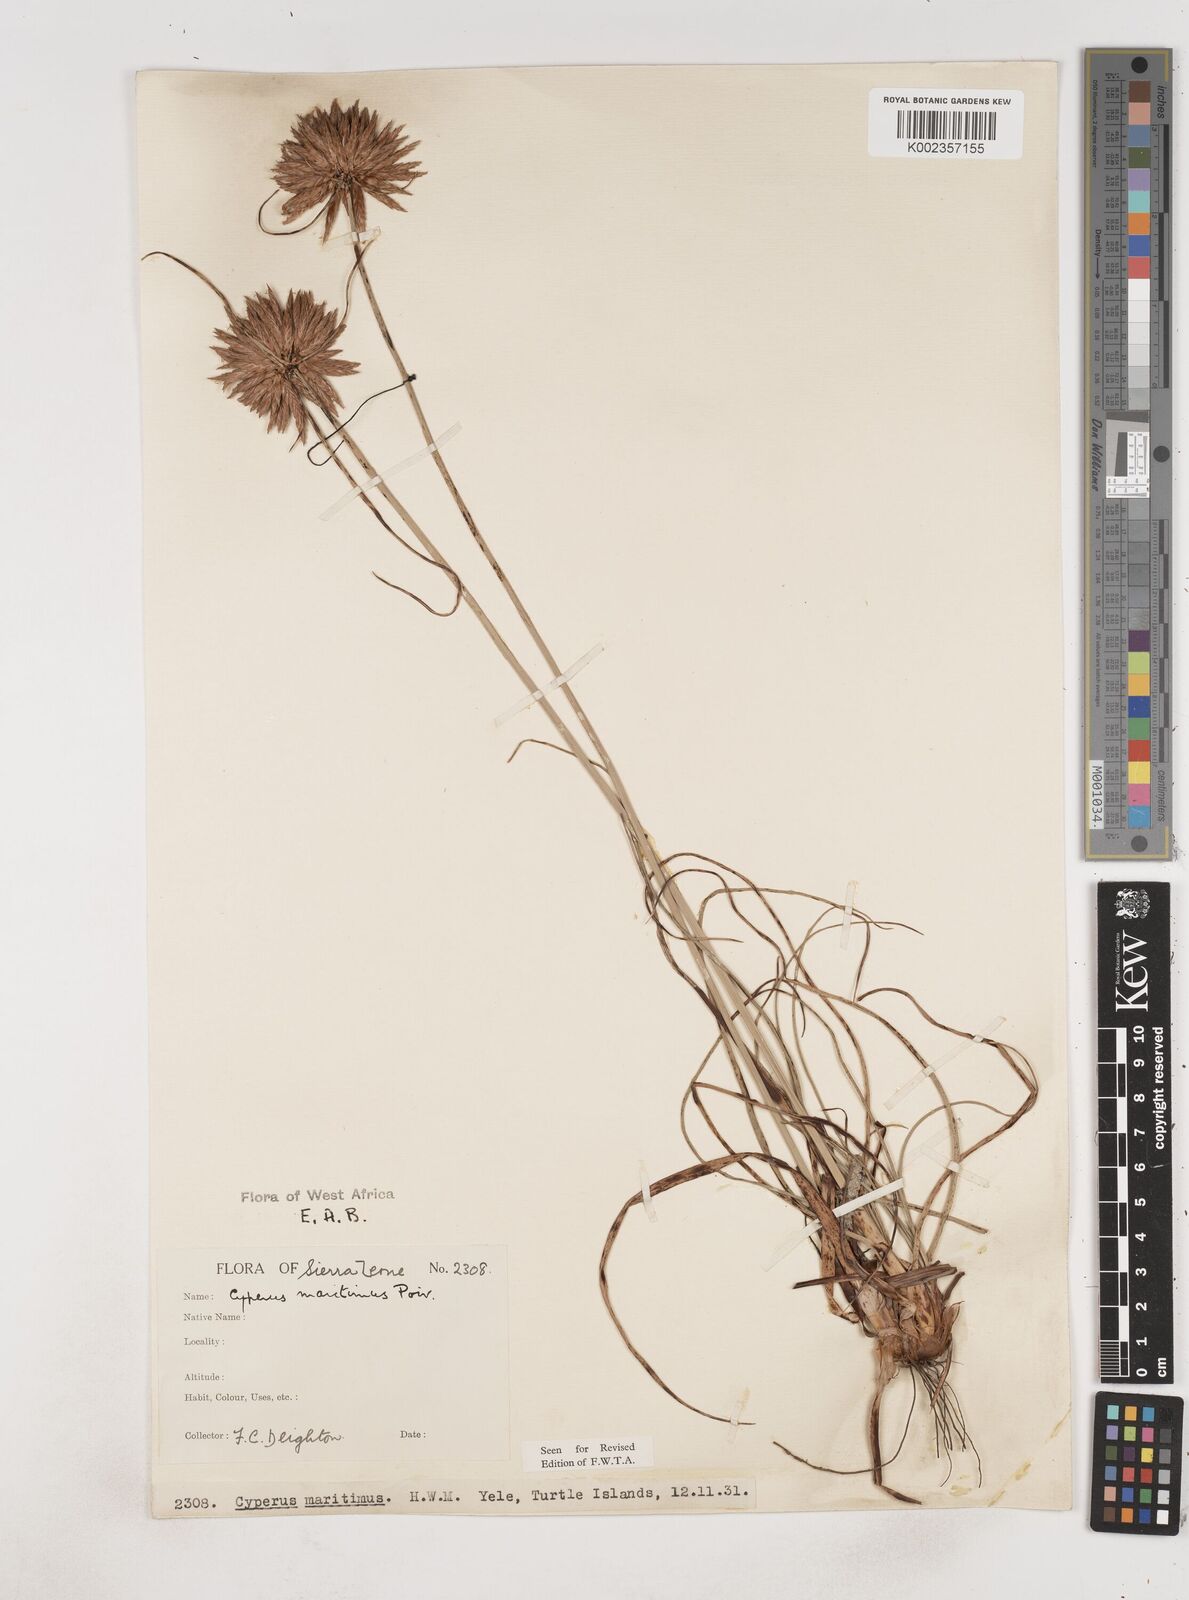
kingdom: Plantae
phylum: Tracheophyta
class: Liliopsida
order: Poales
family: Cyperaceae
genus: Cyperus
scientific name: Cyperus crassipes
